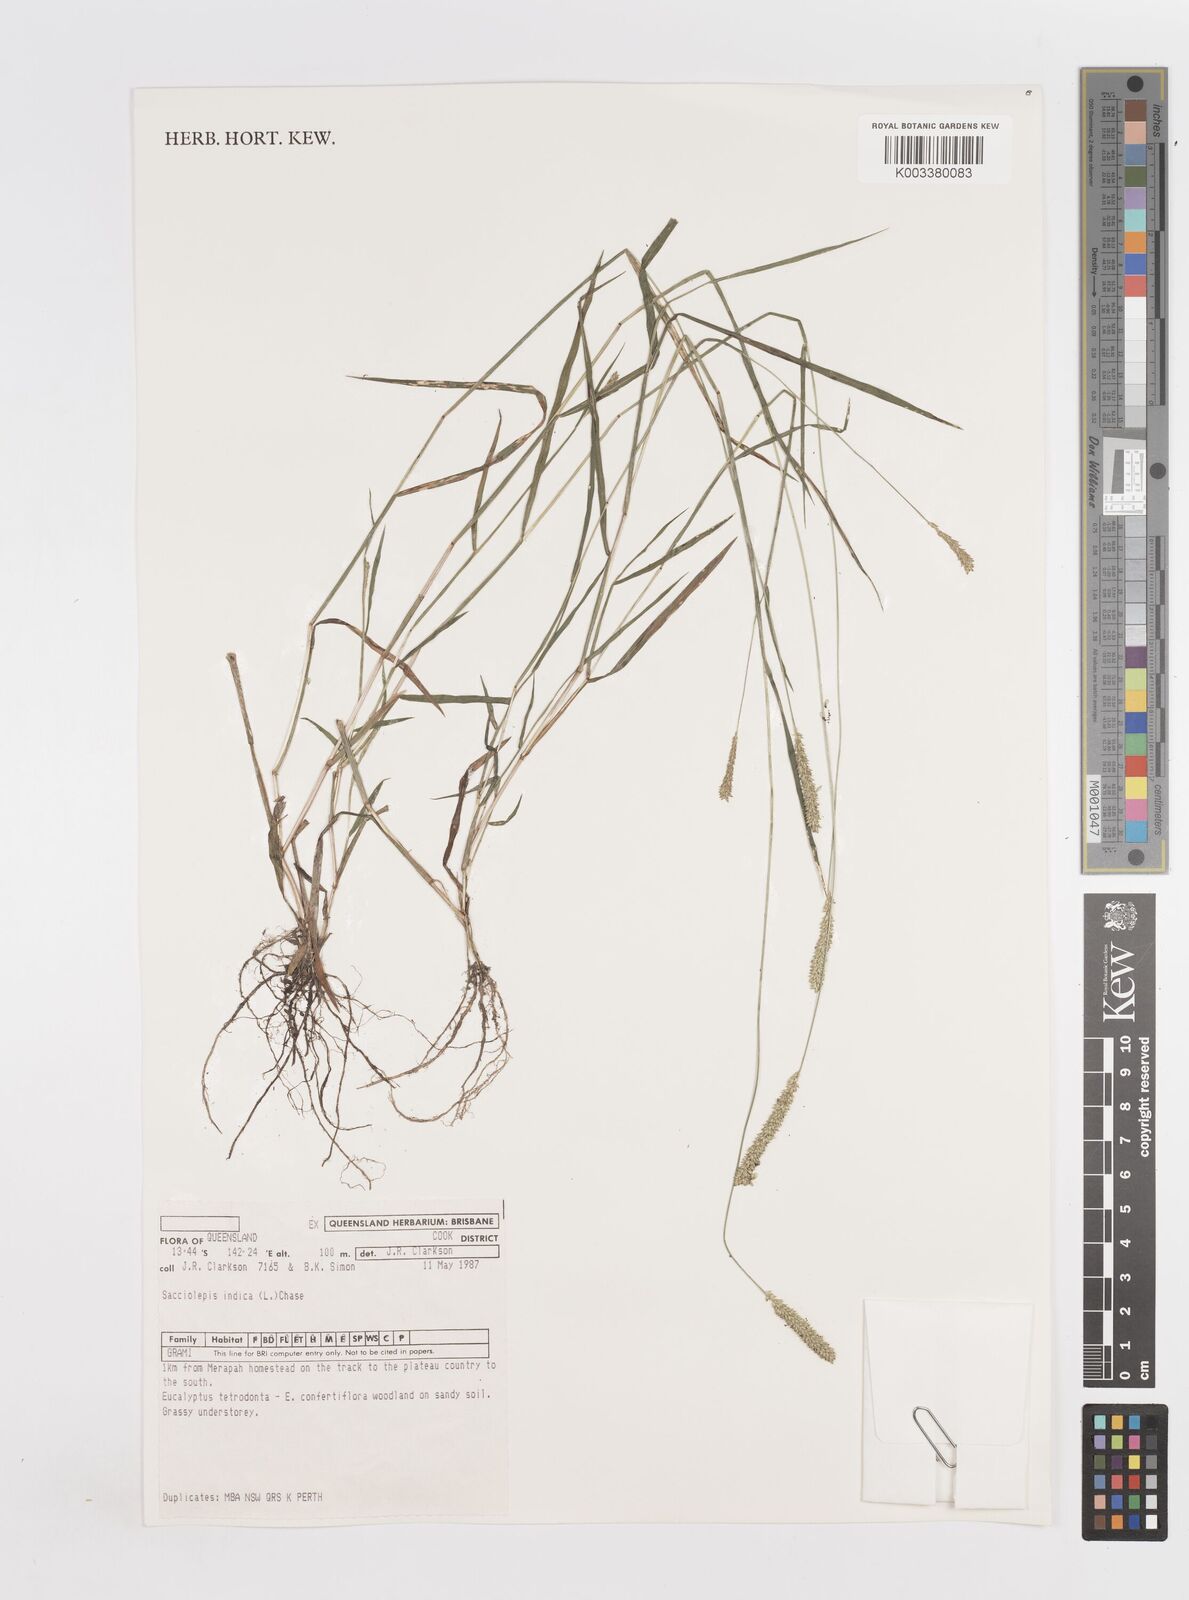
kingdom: Plantae
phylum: Tracheophyta
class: Liliopsida
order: Poales
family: Poaceae
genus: Sacciolepis
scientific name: Sacciolepis indica
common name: Glenwoodgrass
